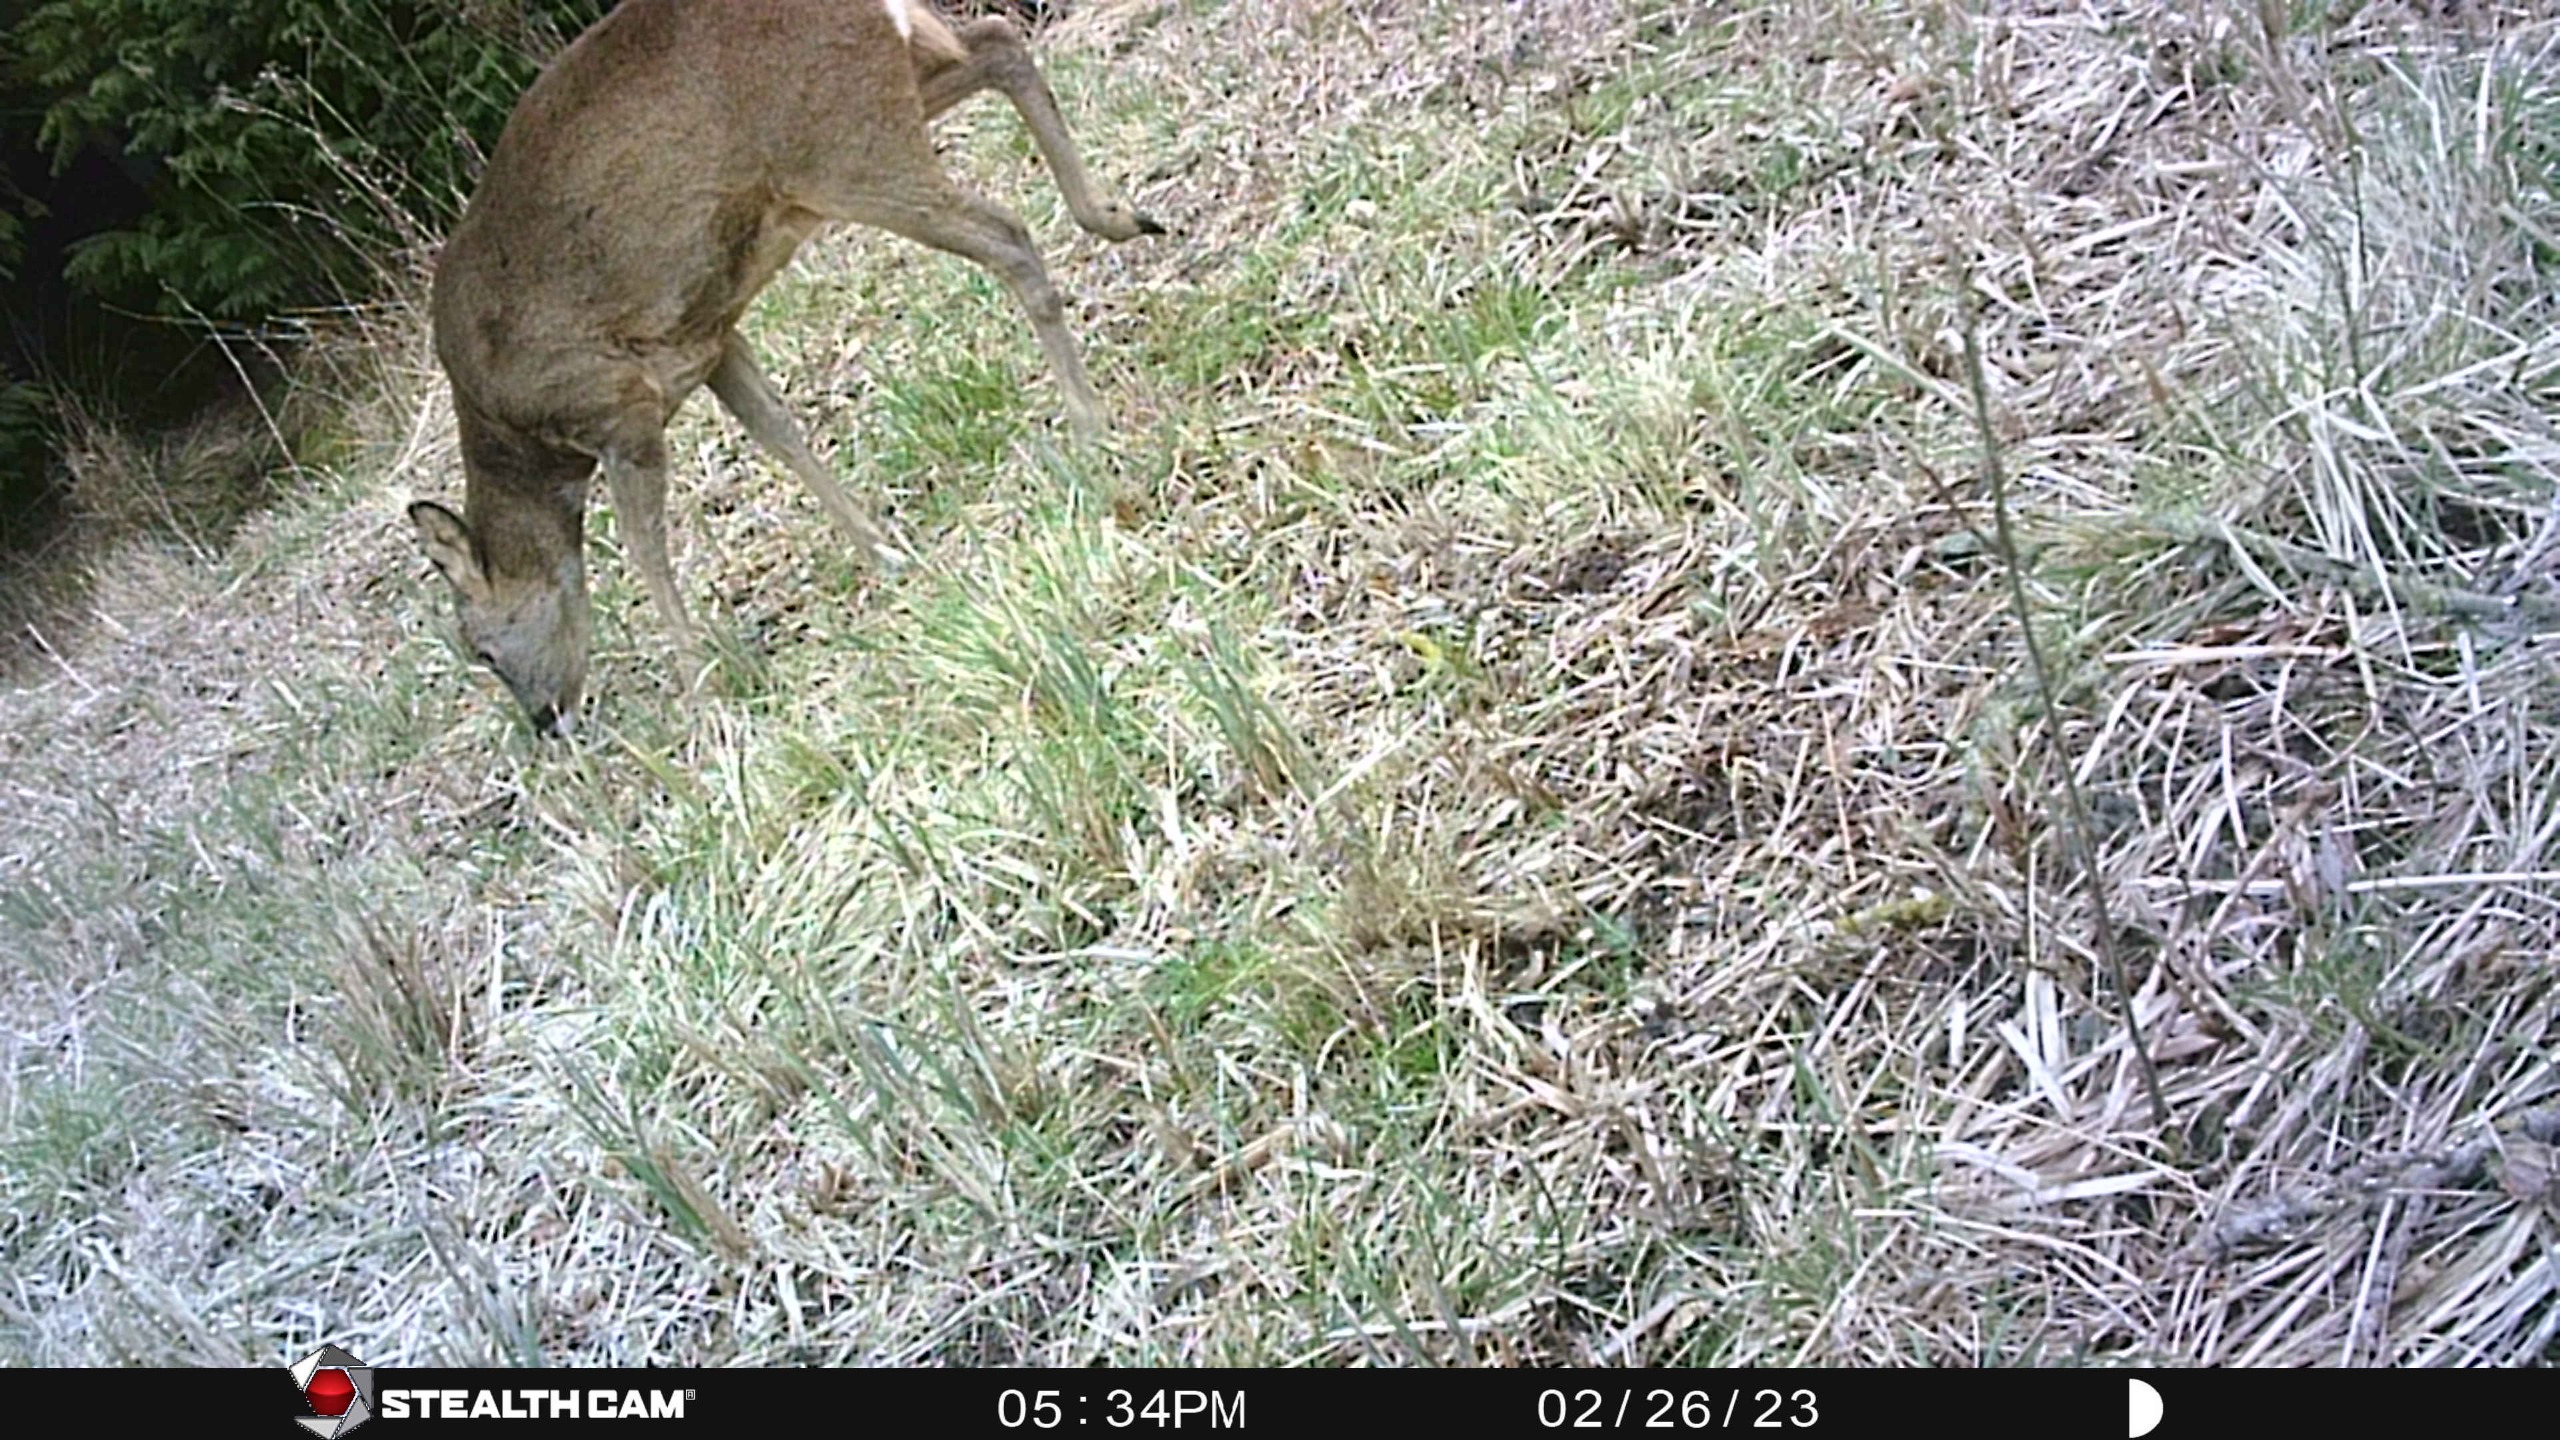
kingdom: Animalia
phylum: Chordata
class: Mammalia
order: Artiodactyla
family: Cervidae
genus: Capreolus
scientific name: Capreolus capreolus
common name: Rådyr
